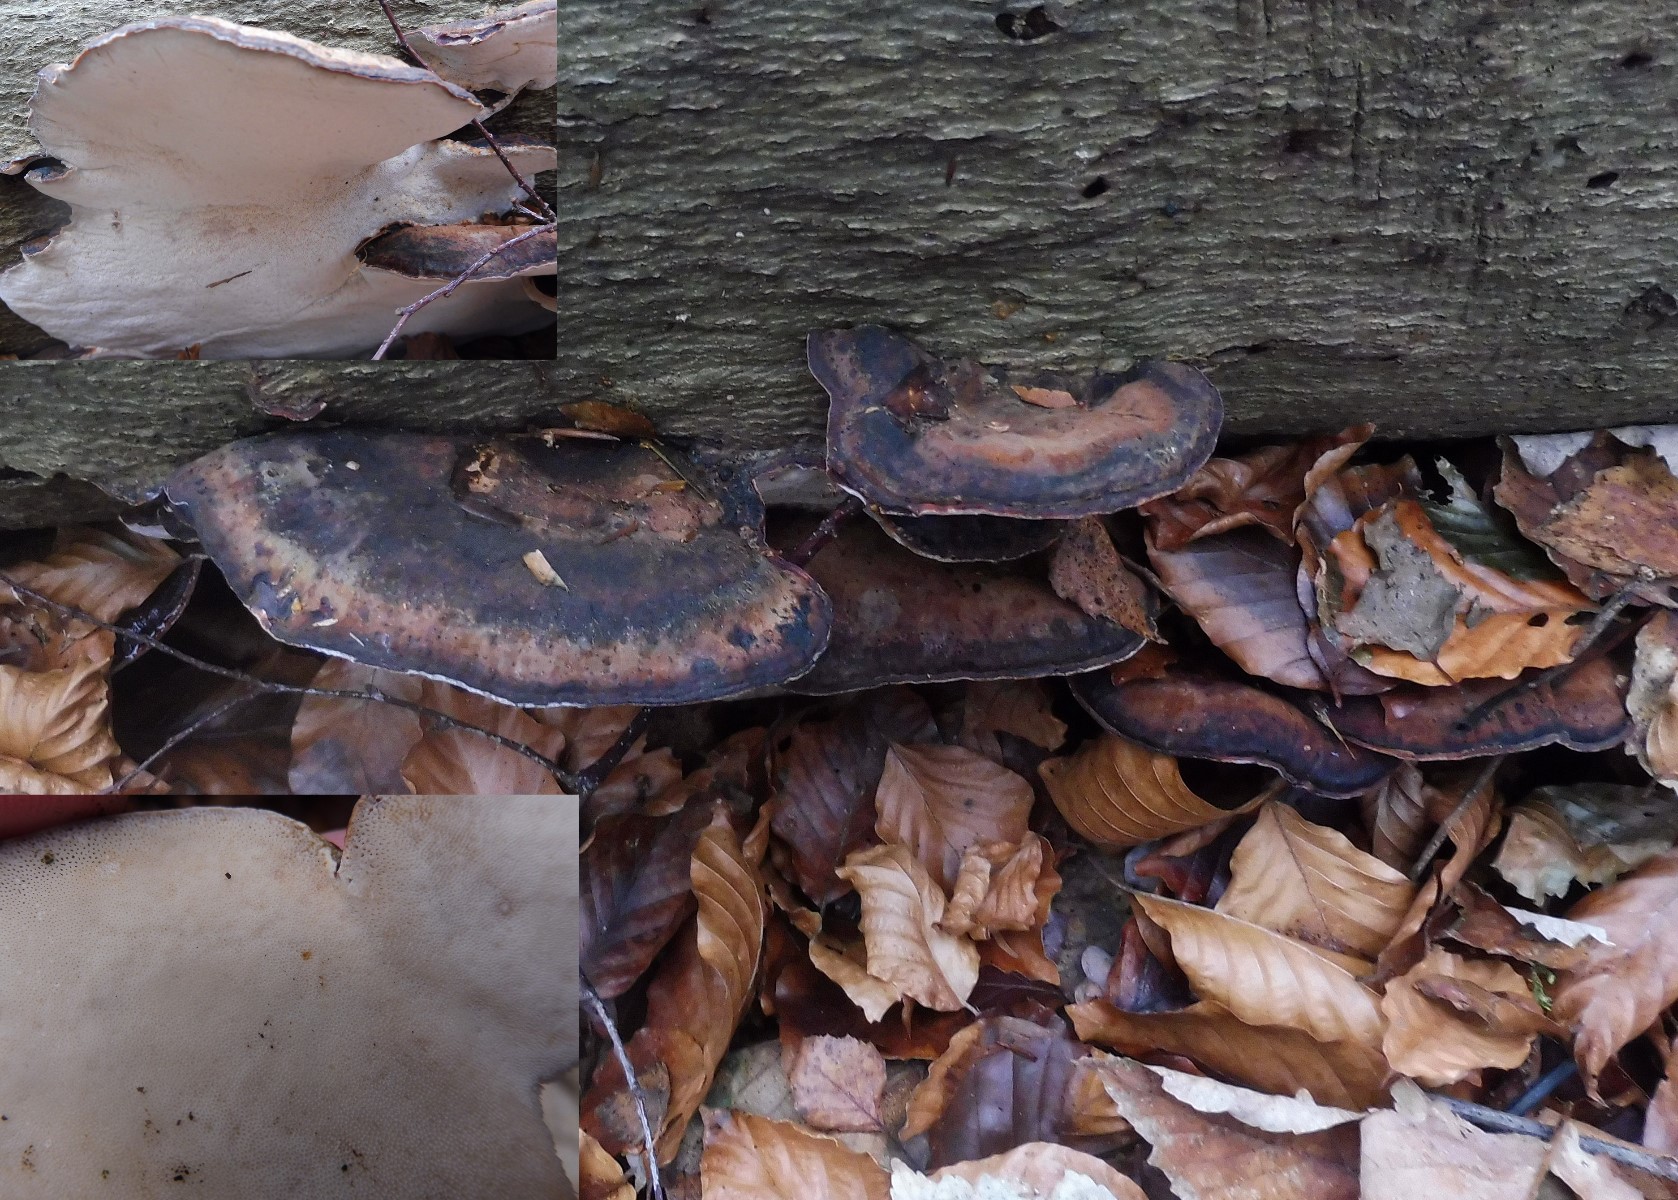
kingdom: Fungi
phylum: Basidiomycota
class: Agaricomycetes
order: Polyporales
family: Ischnodermataceae
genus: Ischnoderma
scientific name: Ischnoderma resinosum
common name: løv-tjæreporesvamp
